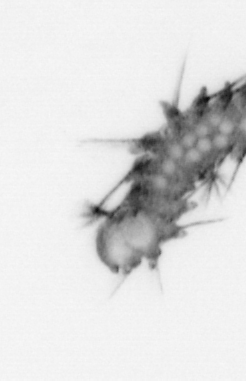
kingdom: Animalia
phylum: Annelida
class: Polychaeta
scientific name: Polychaeta
